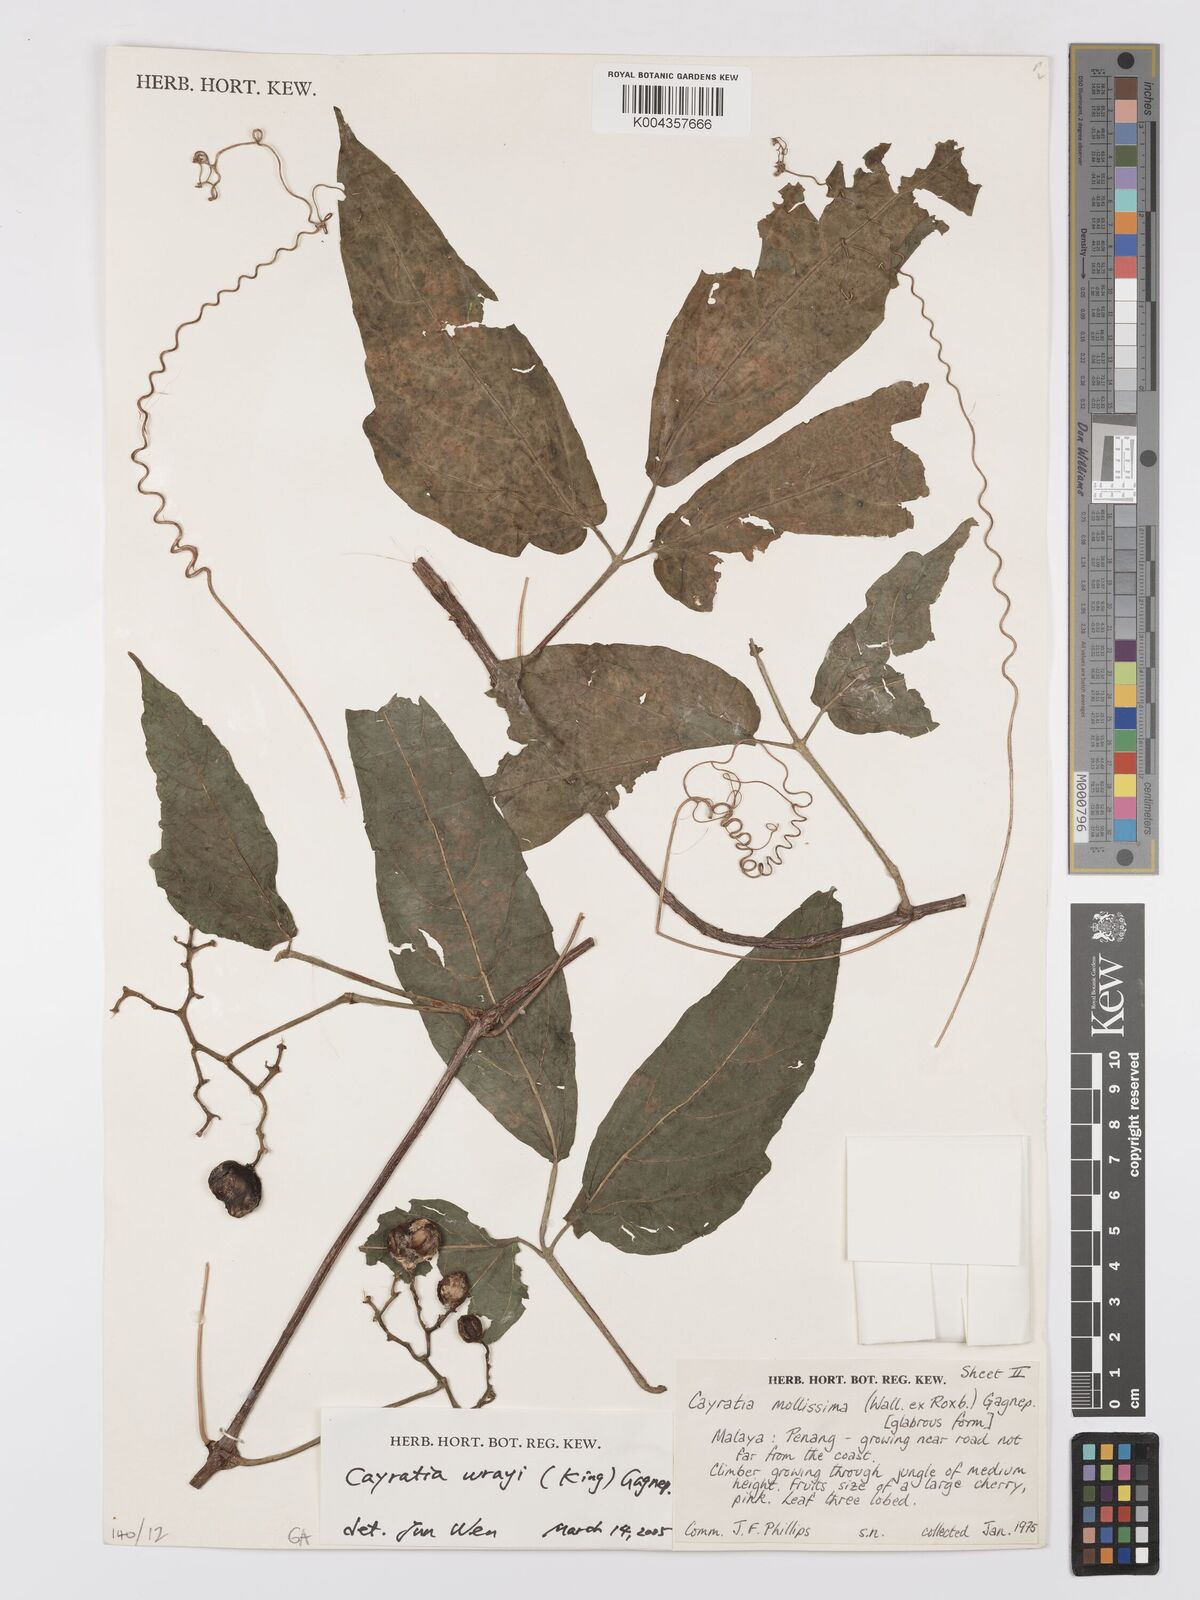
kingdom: Plantae
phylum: Tracheophyta
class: Magnoliopsida
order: Vitales
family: Vitaceae
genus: Cayratia
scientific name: Cayratia mollissima
